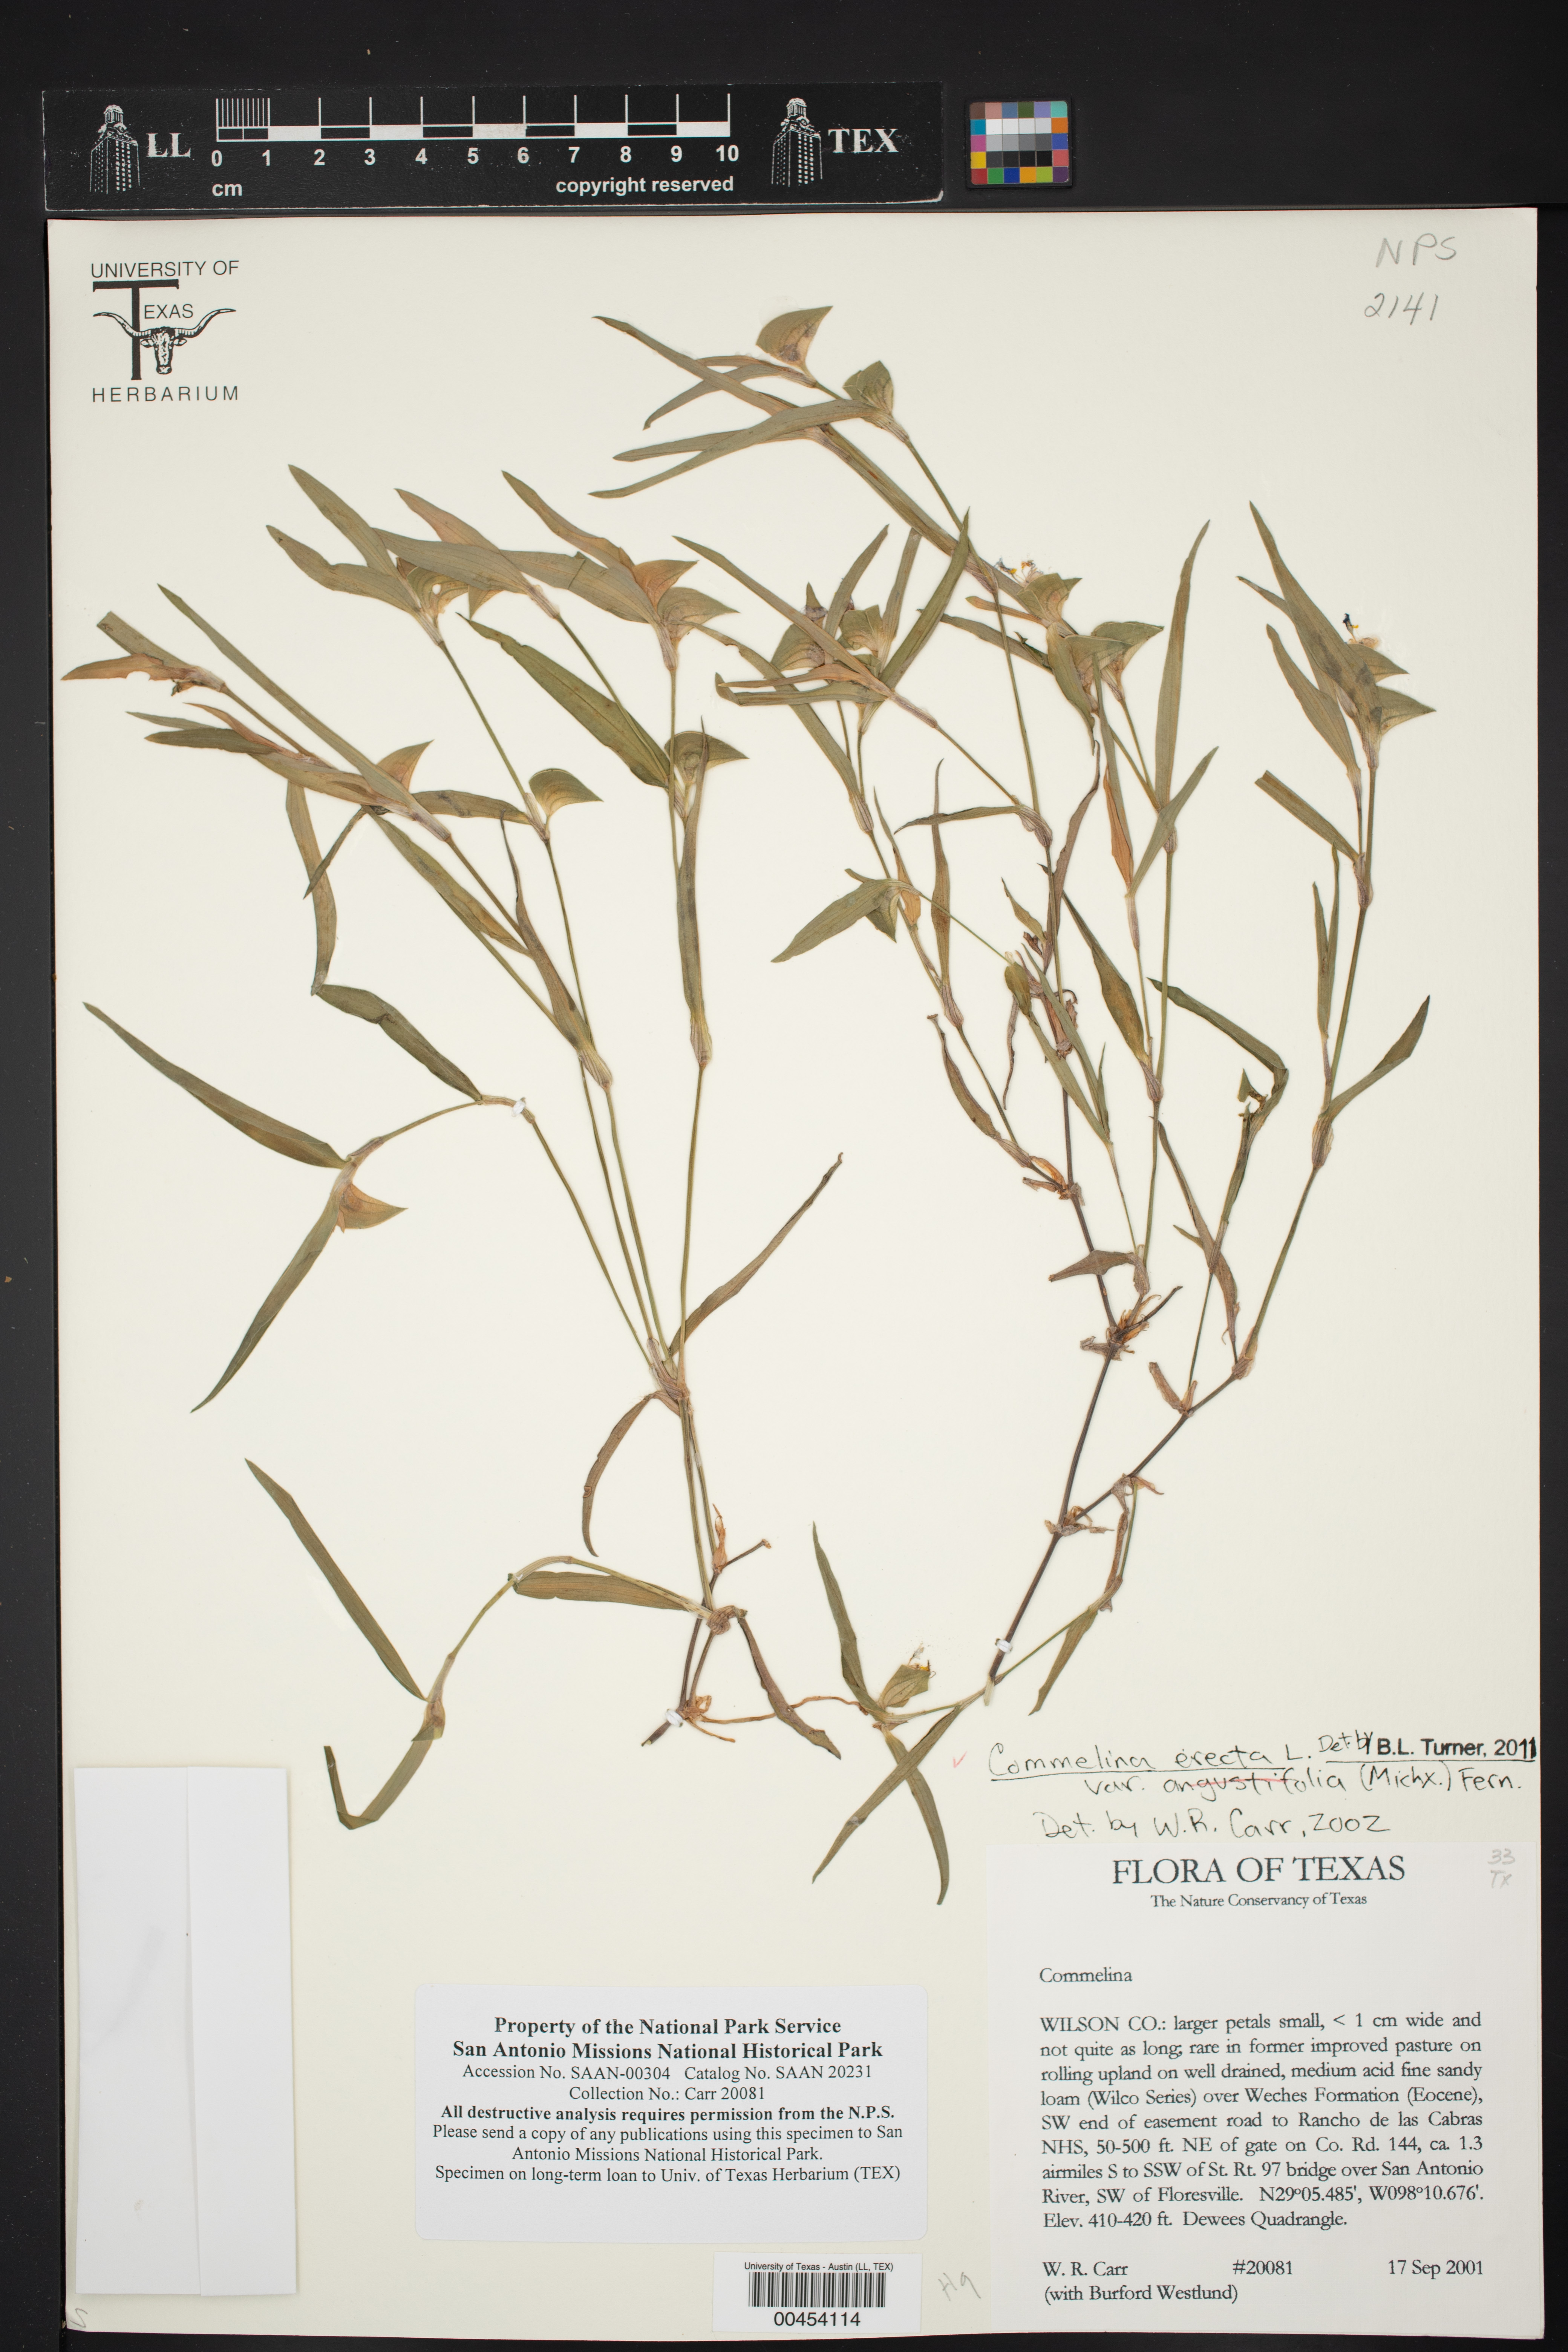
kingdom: Plantae
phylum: Tracheophyta
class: Liliopsida
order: Commelinales
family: Commelinaceae
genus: Commelina
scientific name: Commelina erecta
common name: Blousel blommetjie
